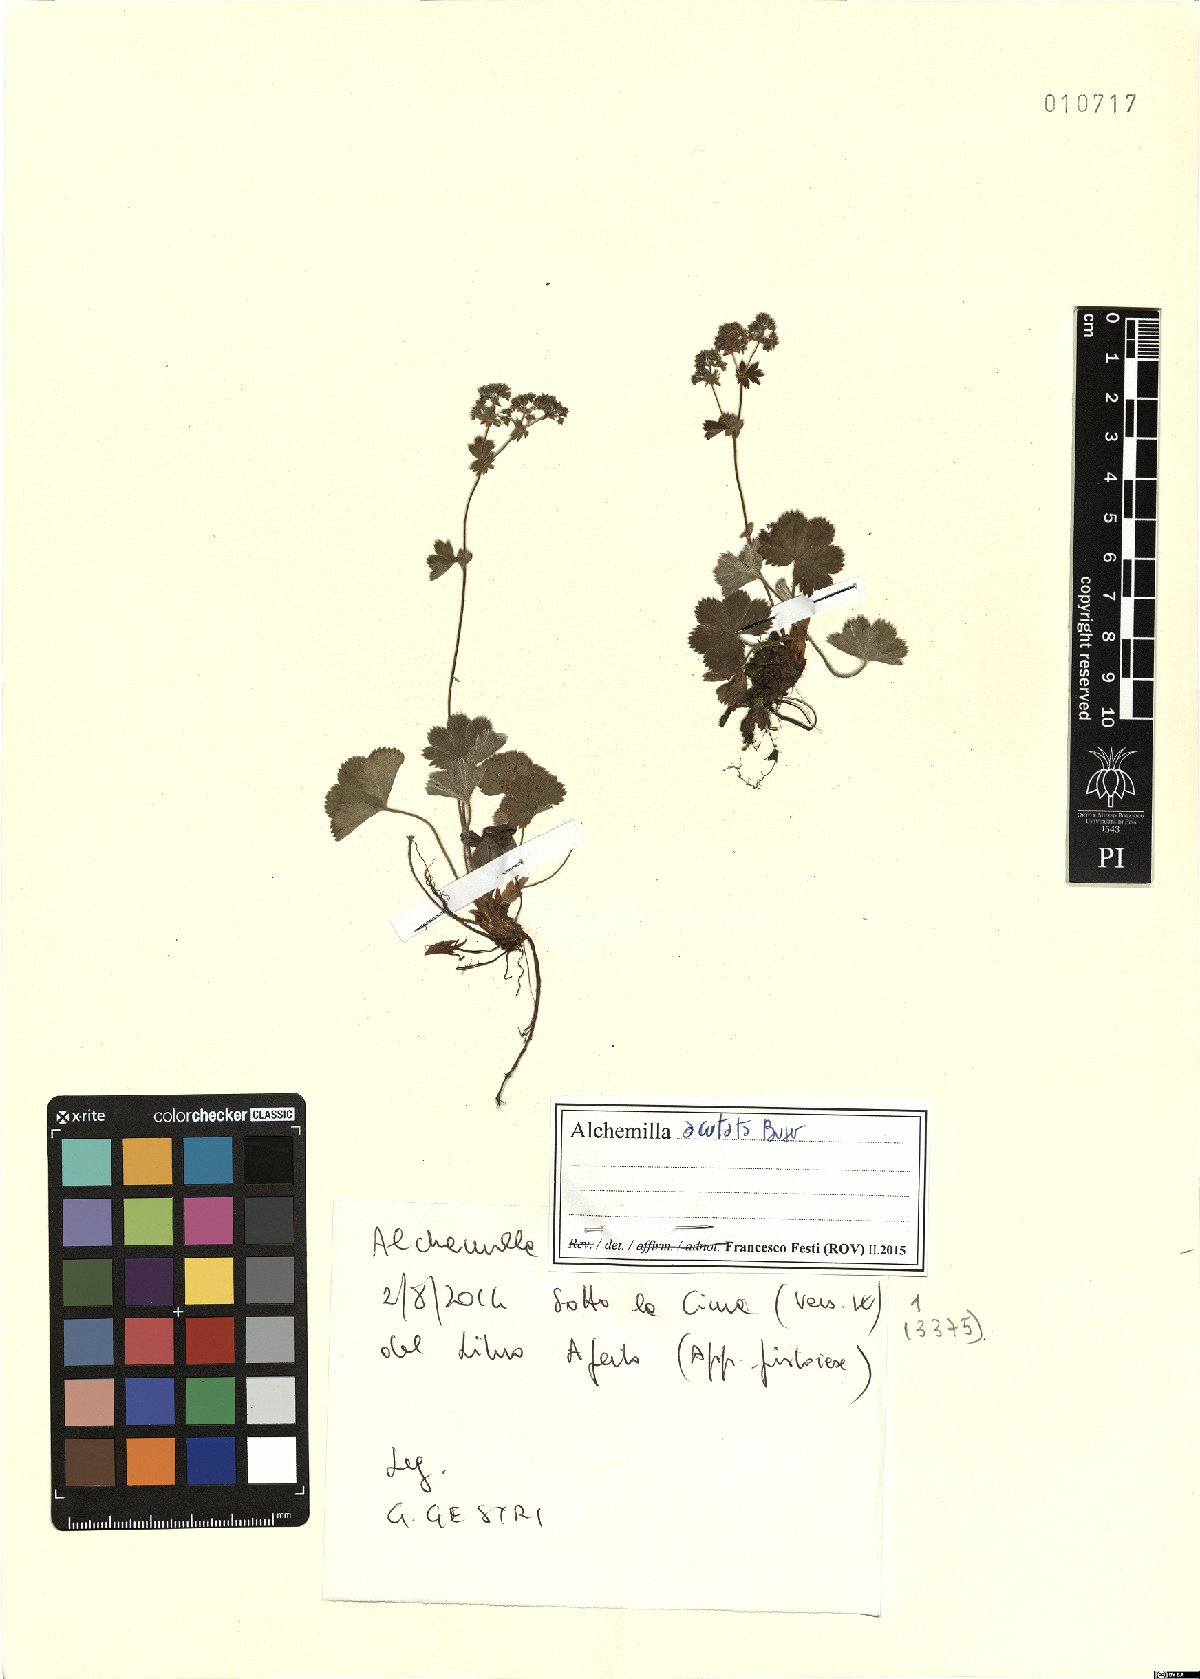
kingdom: Plantae
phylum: Tracheophyta
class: Magnoliopsida
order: Rosales
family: Rosaceae
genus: Alchemilla
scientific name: Alchemilla acutata
